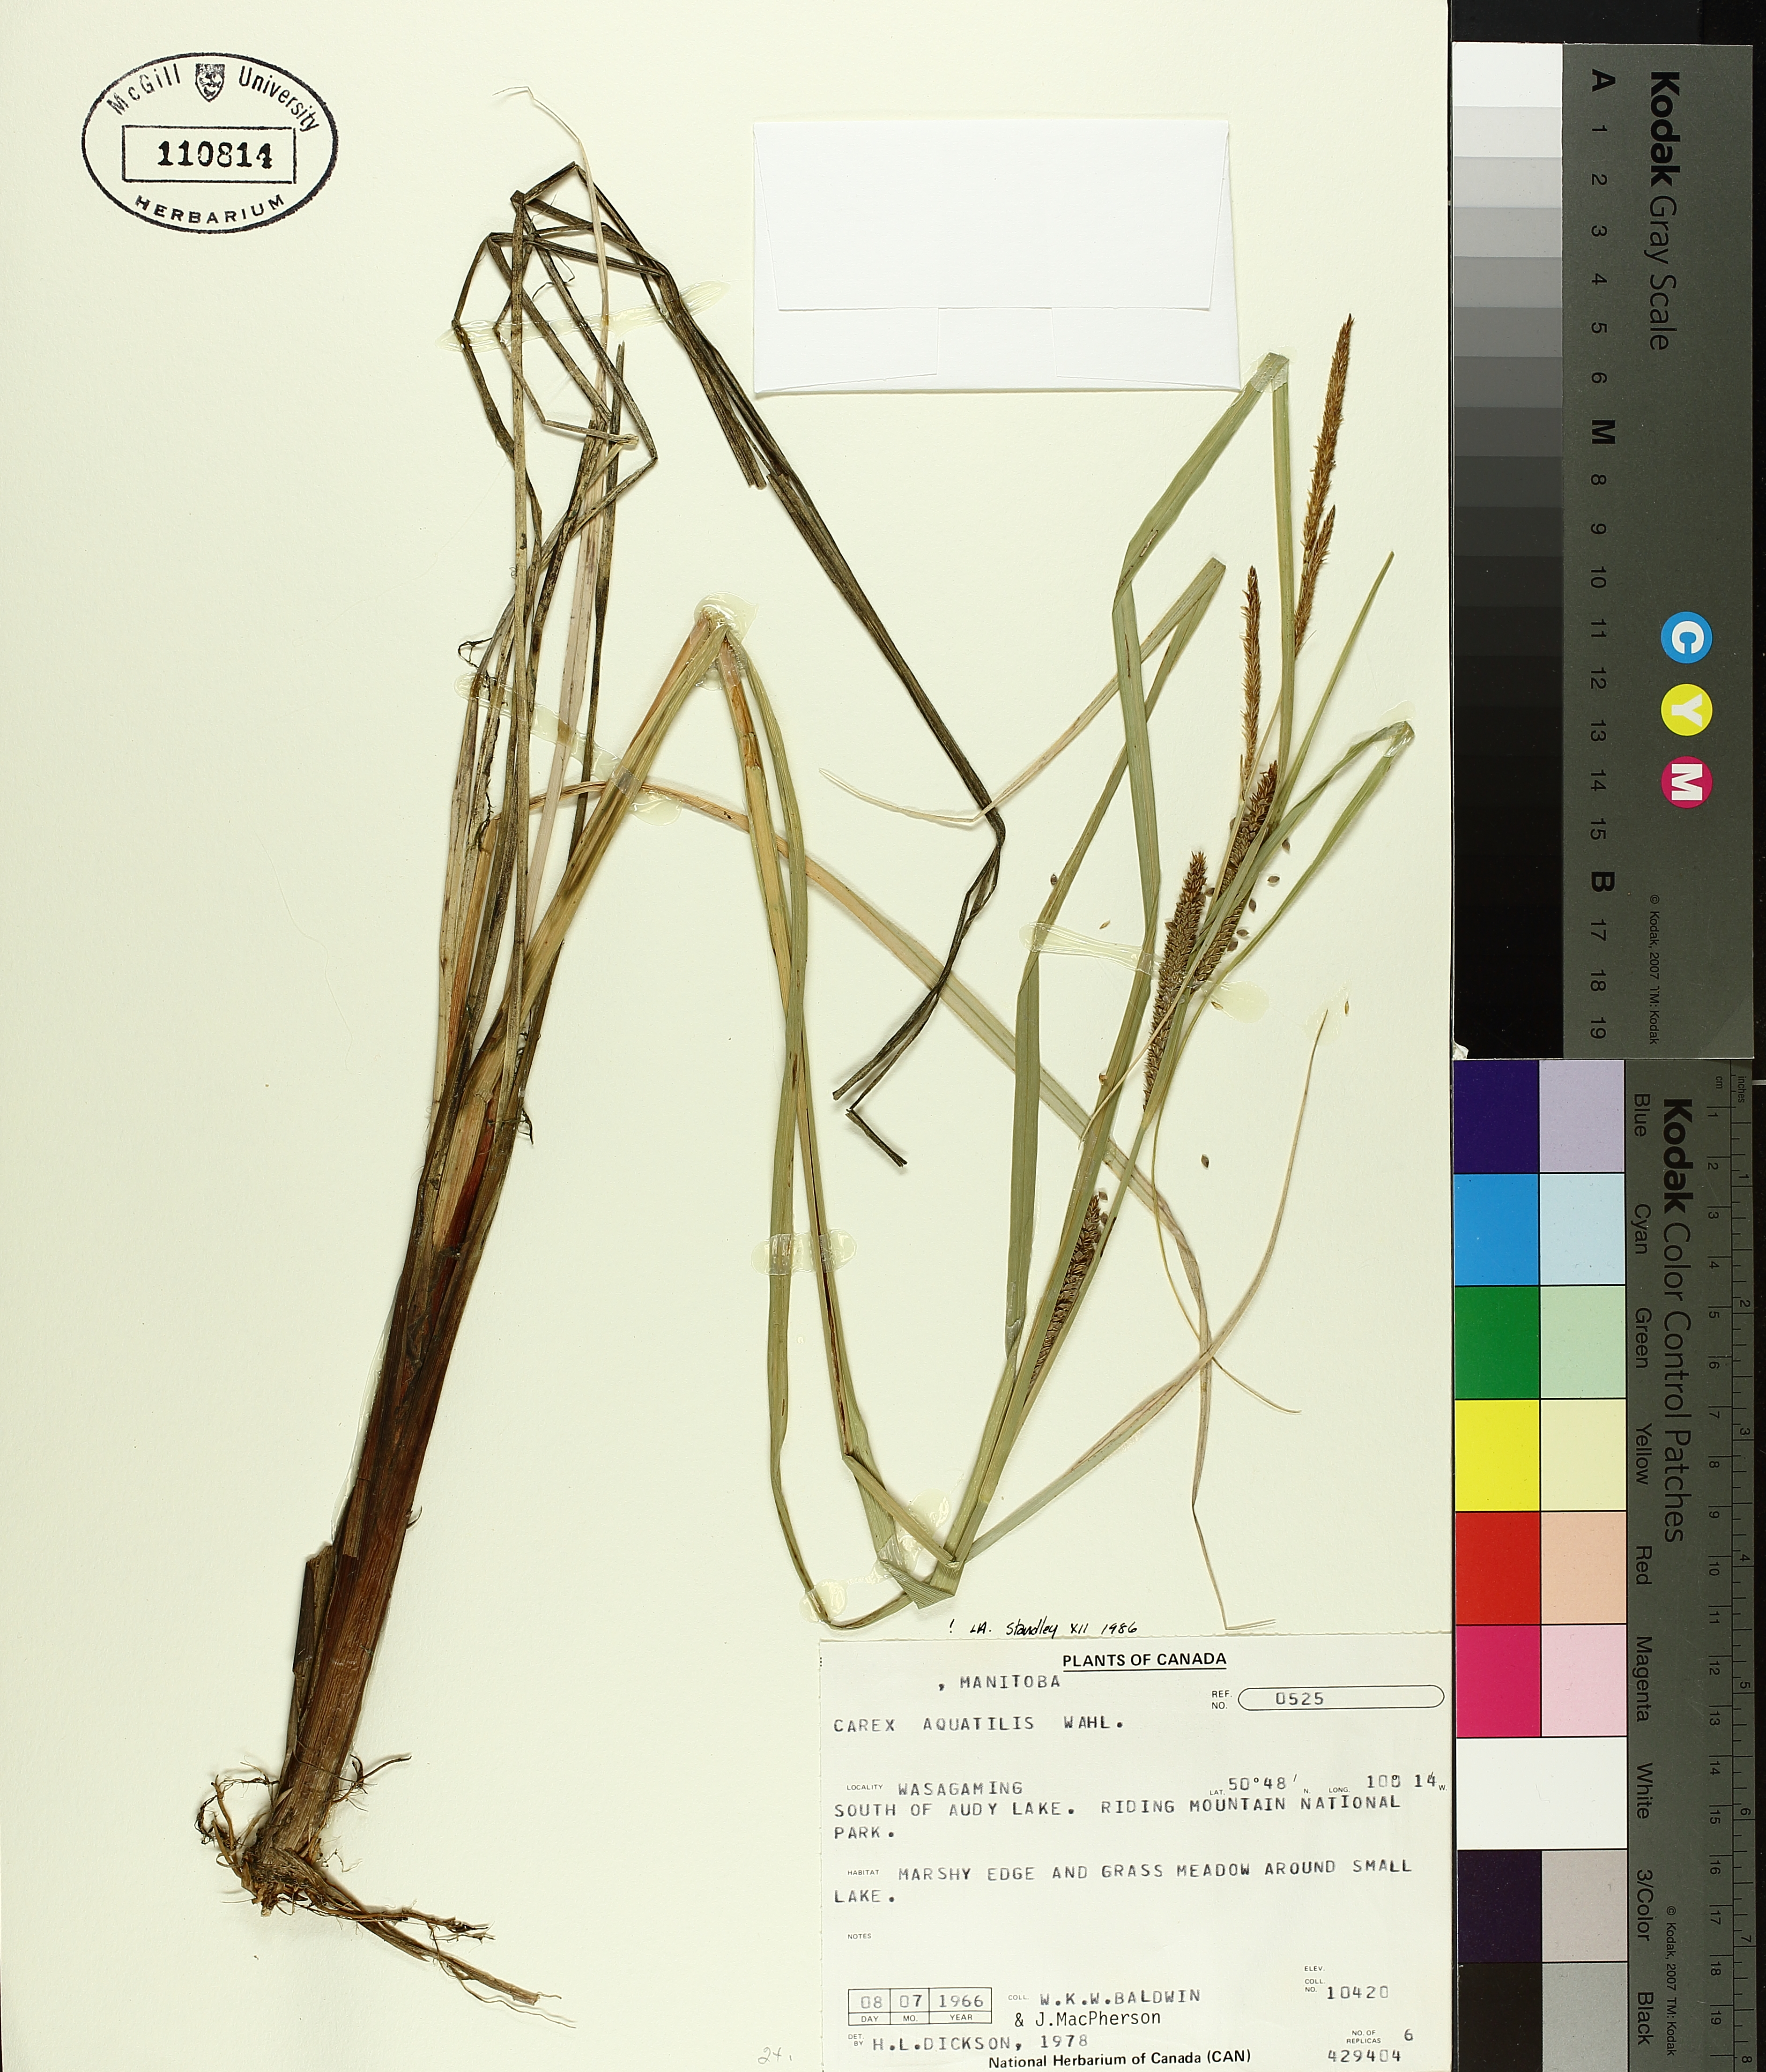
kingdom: Plantae
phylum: Tracheophyta
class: Liliopsida
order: Poales
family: Cyperaceae
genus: Carex
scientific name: Carex aquatilis
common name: Water sedge
